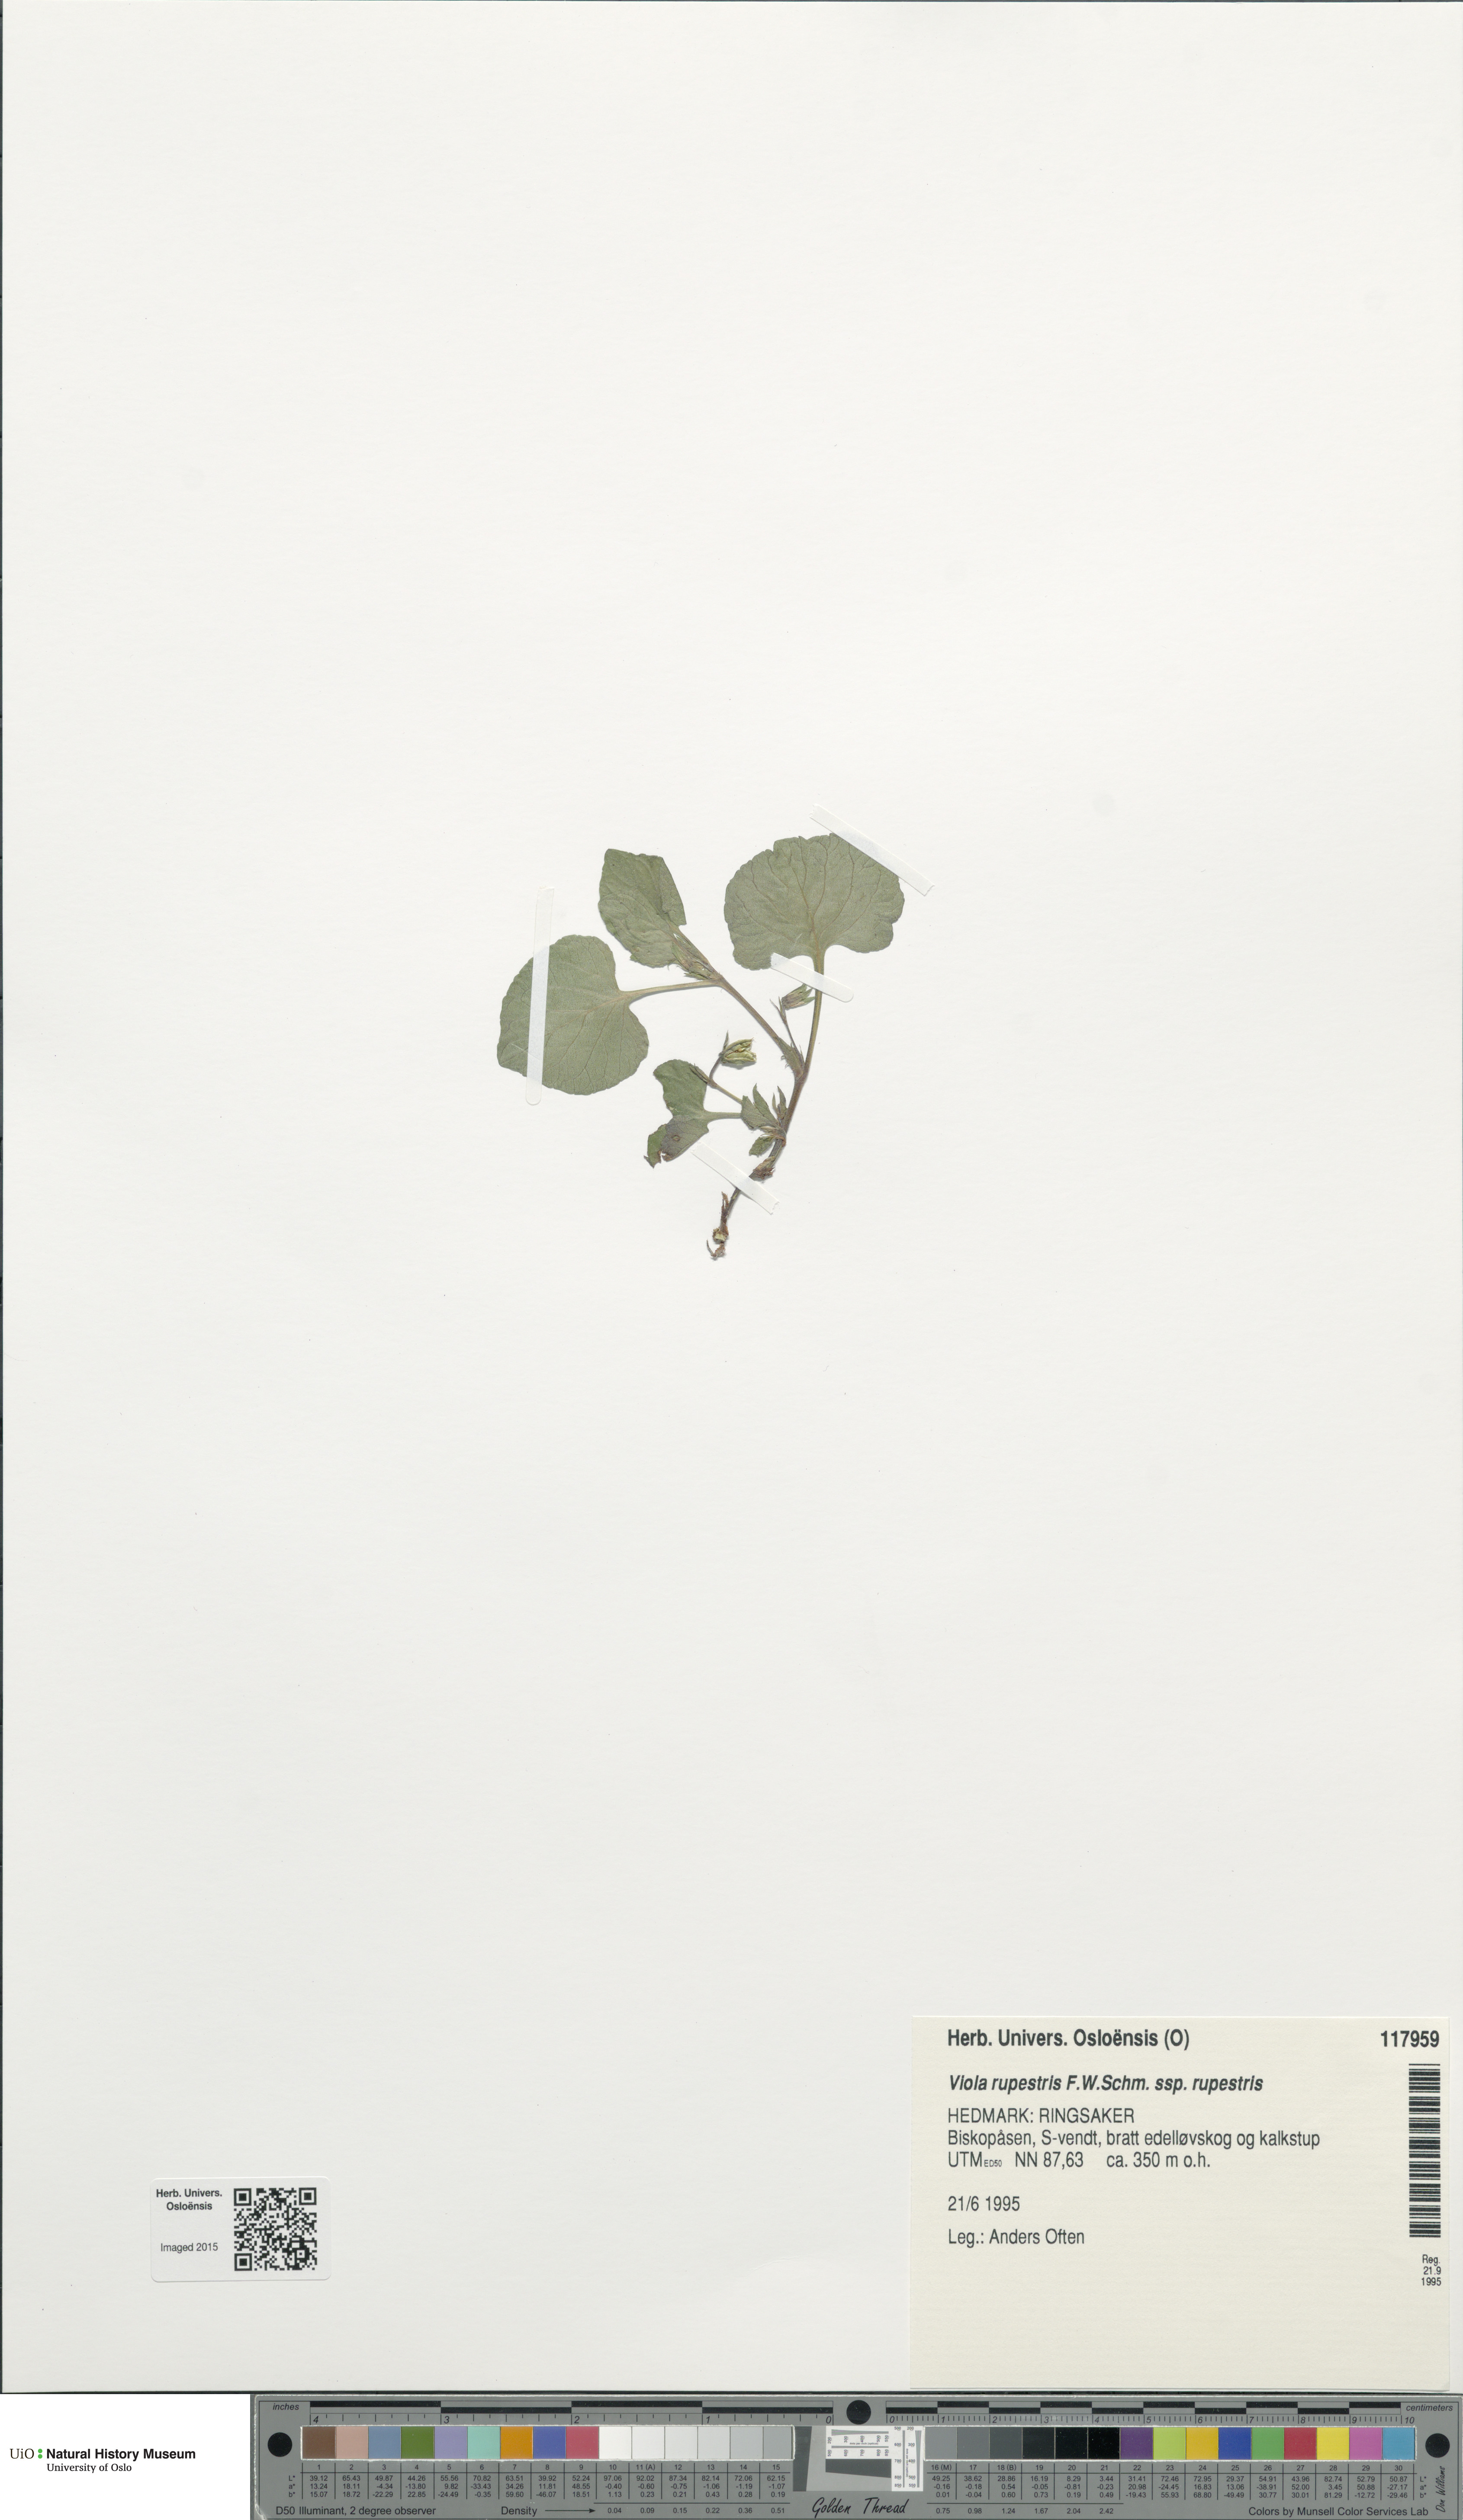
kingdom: Plantae
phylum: Tracheophyta
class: Magnoliopsida
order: Malpighiales
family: Violaceae
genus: Viola
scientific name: Viola rupestris
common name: Teesdale violet
